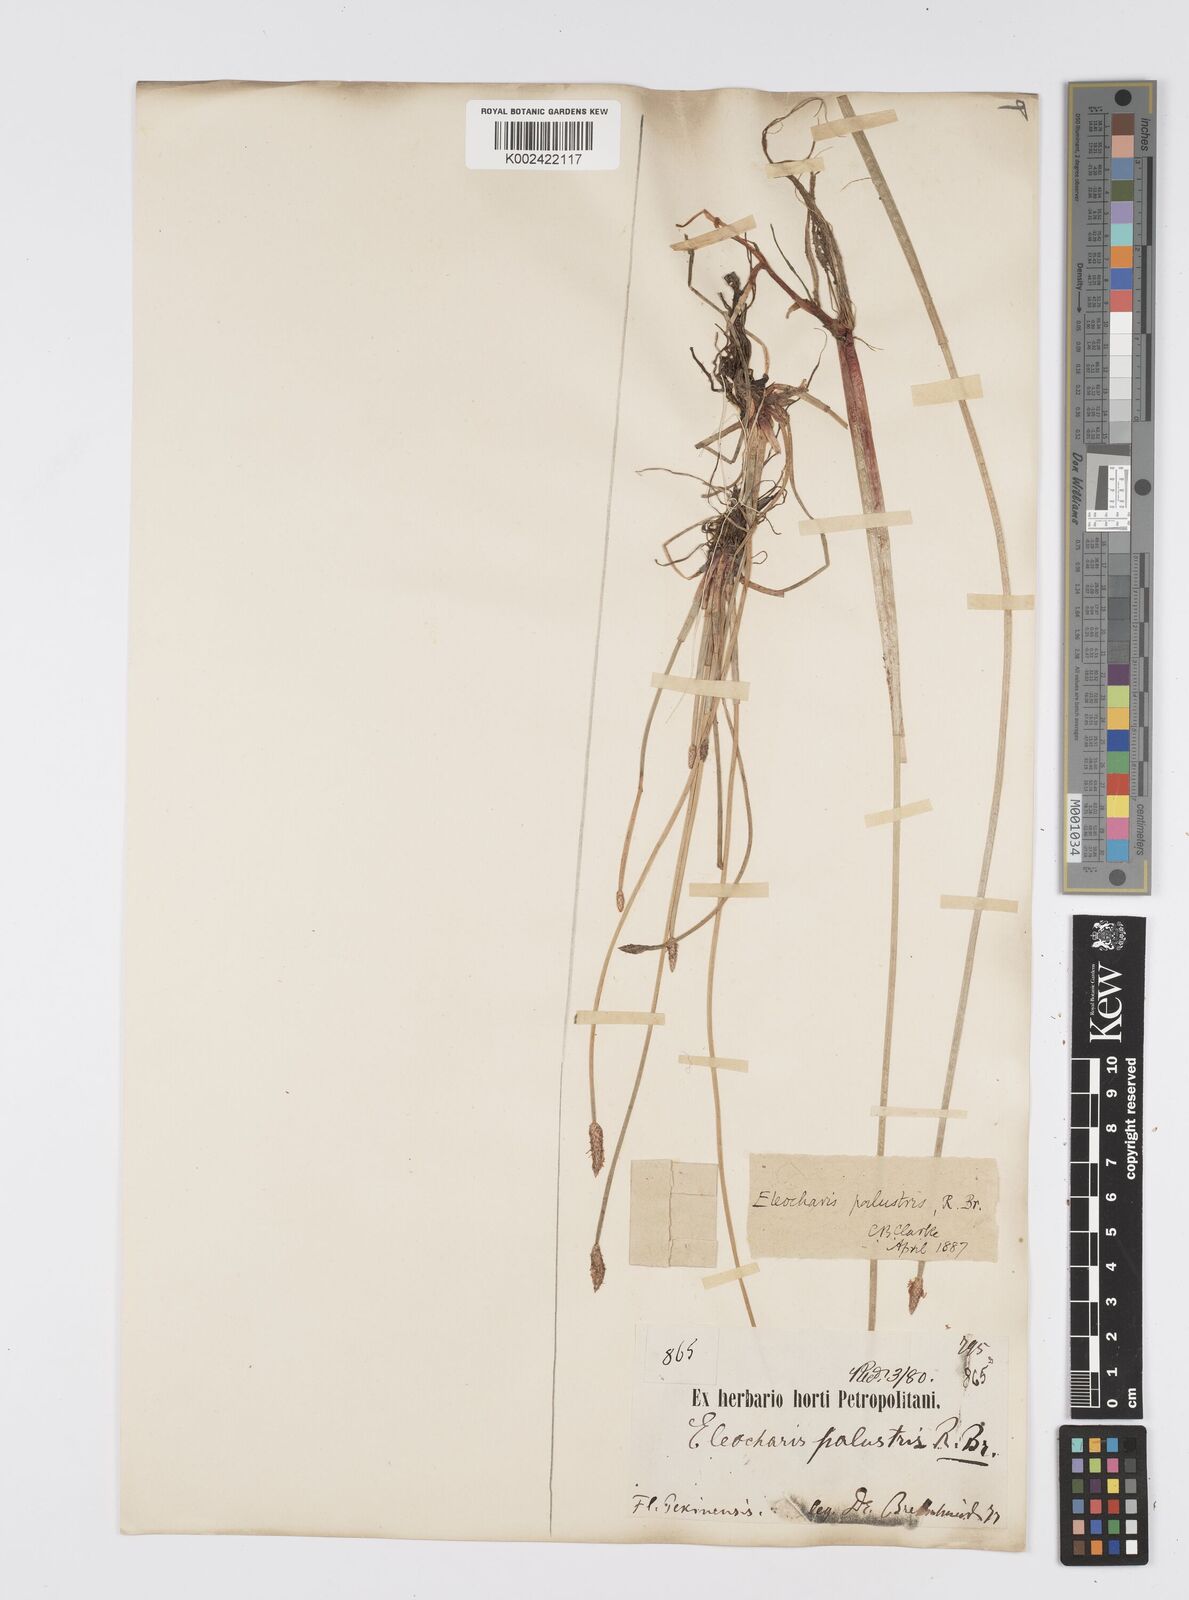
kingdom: Plantae
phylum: Tracheophyta
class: Liliopsida
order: Poales
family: Cyperaceae
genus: Eleocharis
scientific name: Eleocharis palustris
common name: Common spike-rush
